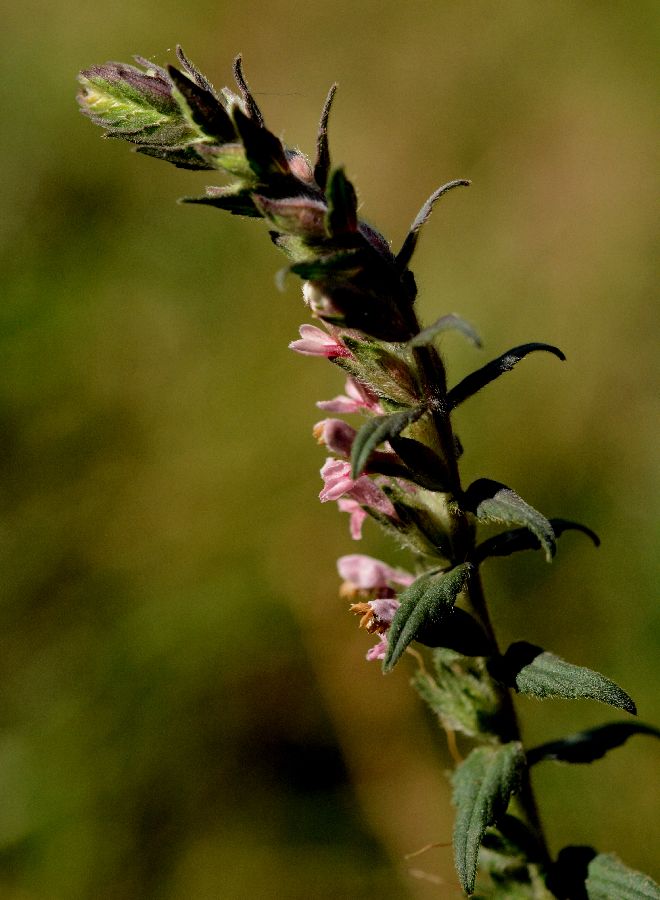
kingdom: Plantae
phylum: Tracheophyta
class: Magnoliopsida
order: Lamiales
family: Orobanchaceae
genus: Odontites
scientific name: Odontites vulgaris
